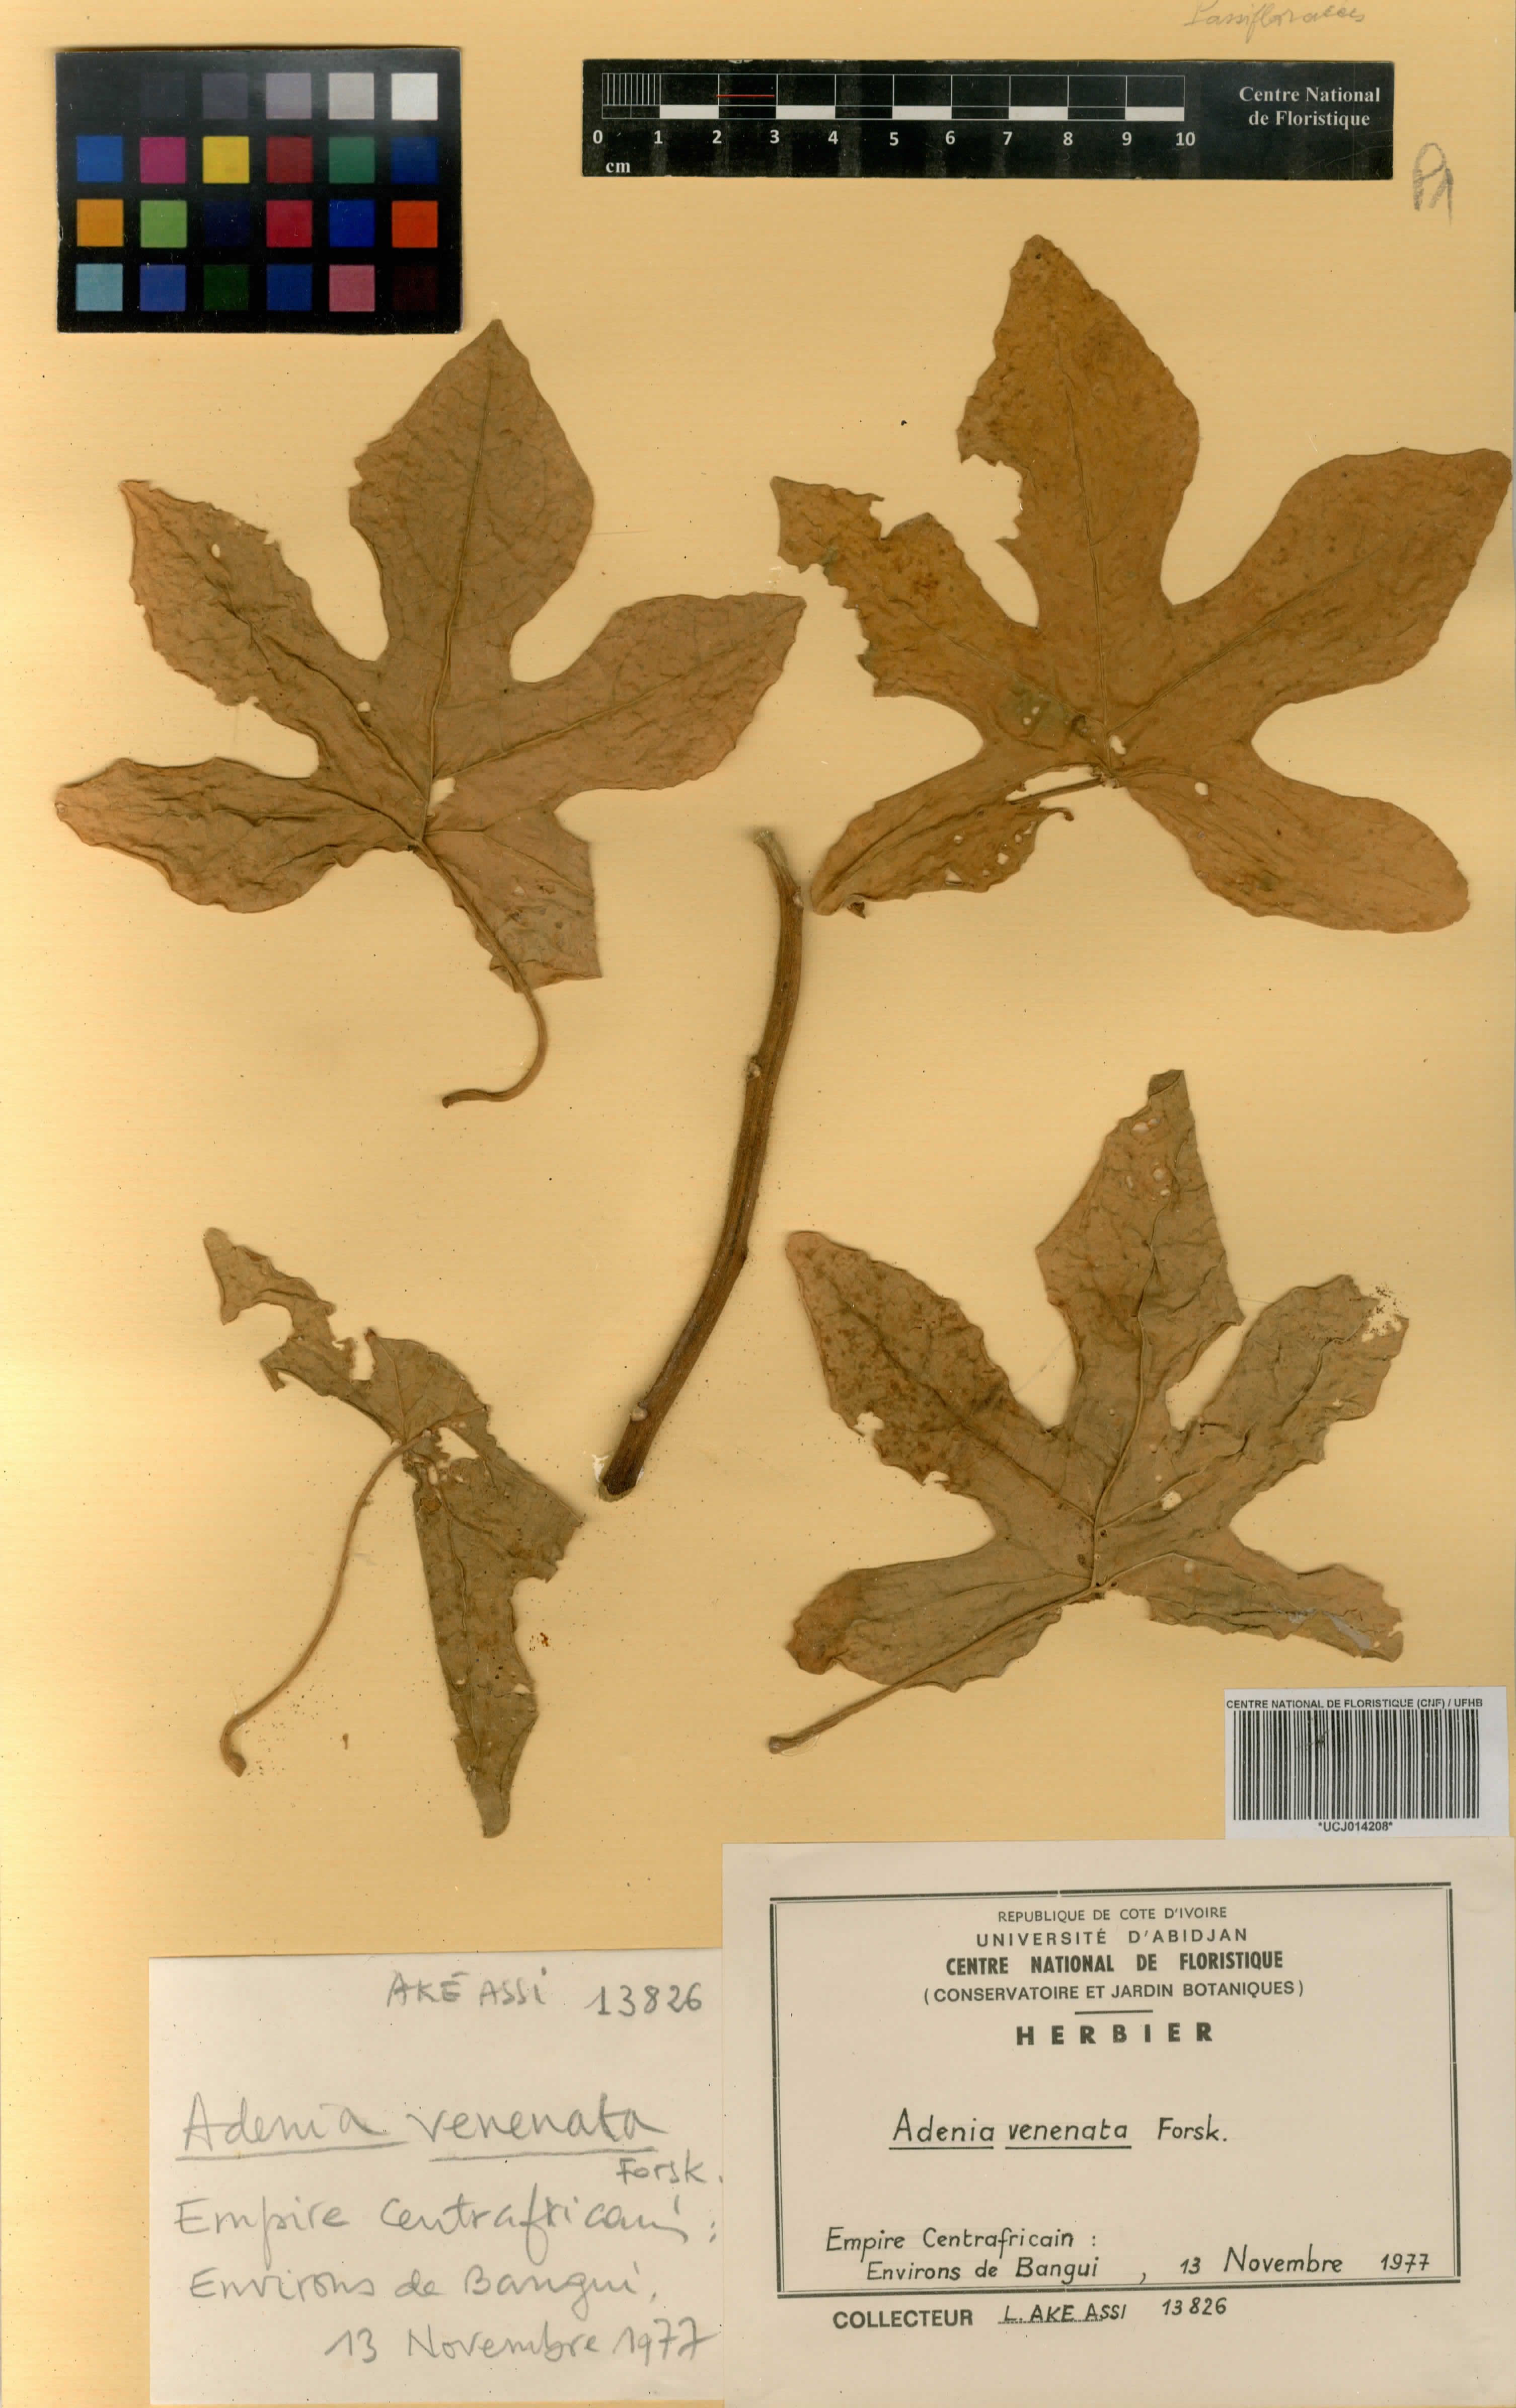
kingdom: Plantae
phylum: Tracheophyta
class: Magnoliopsida
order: Malpighiales
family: Passifloraceae
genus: Adenia
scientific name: Adenia venenata
